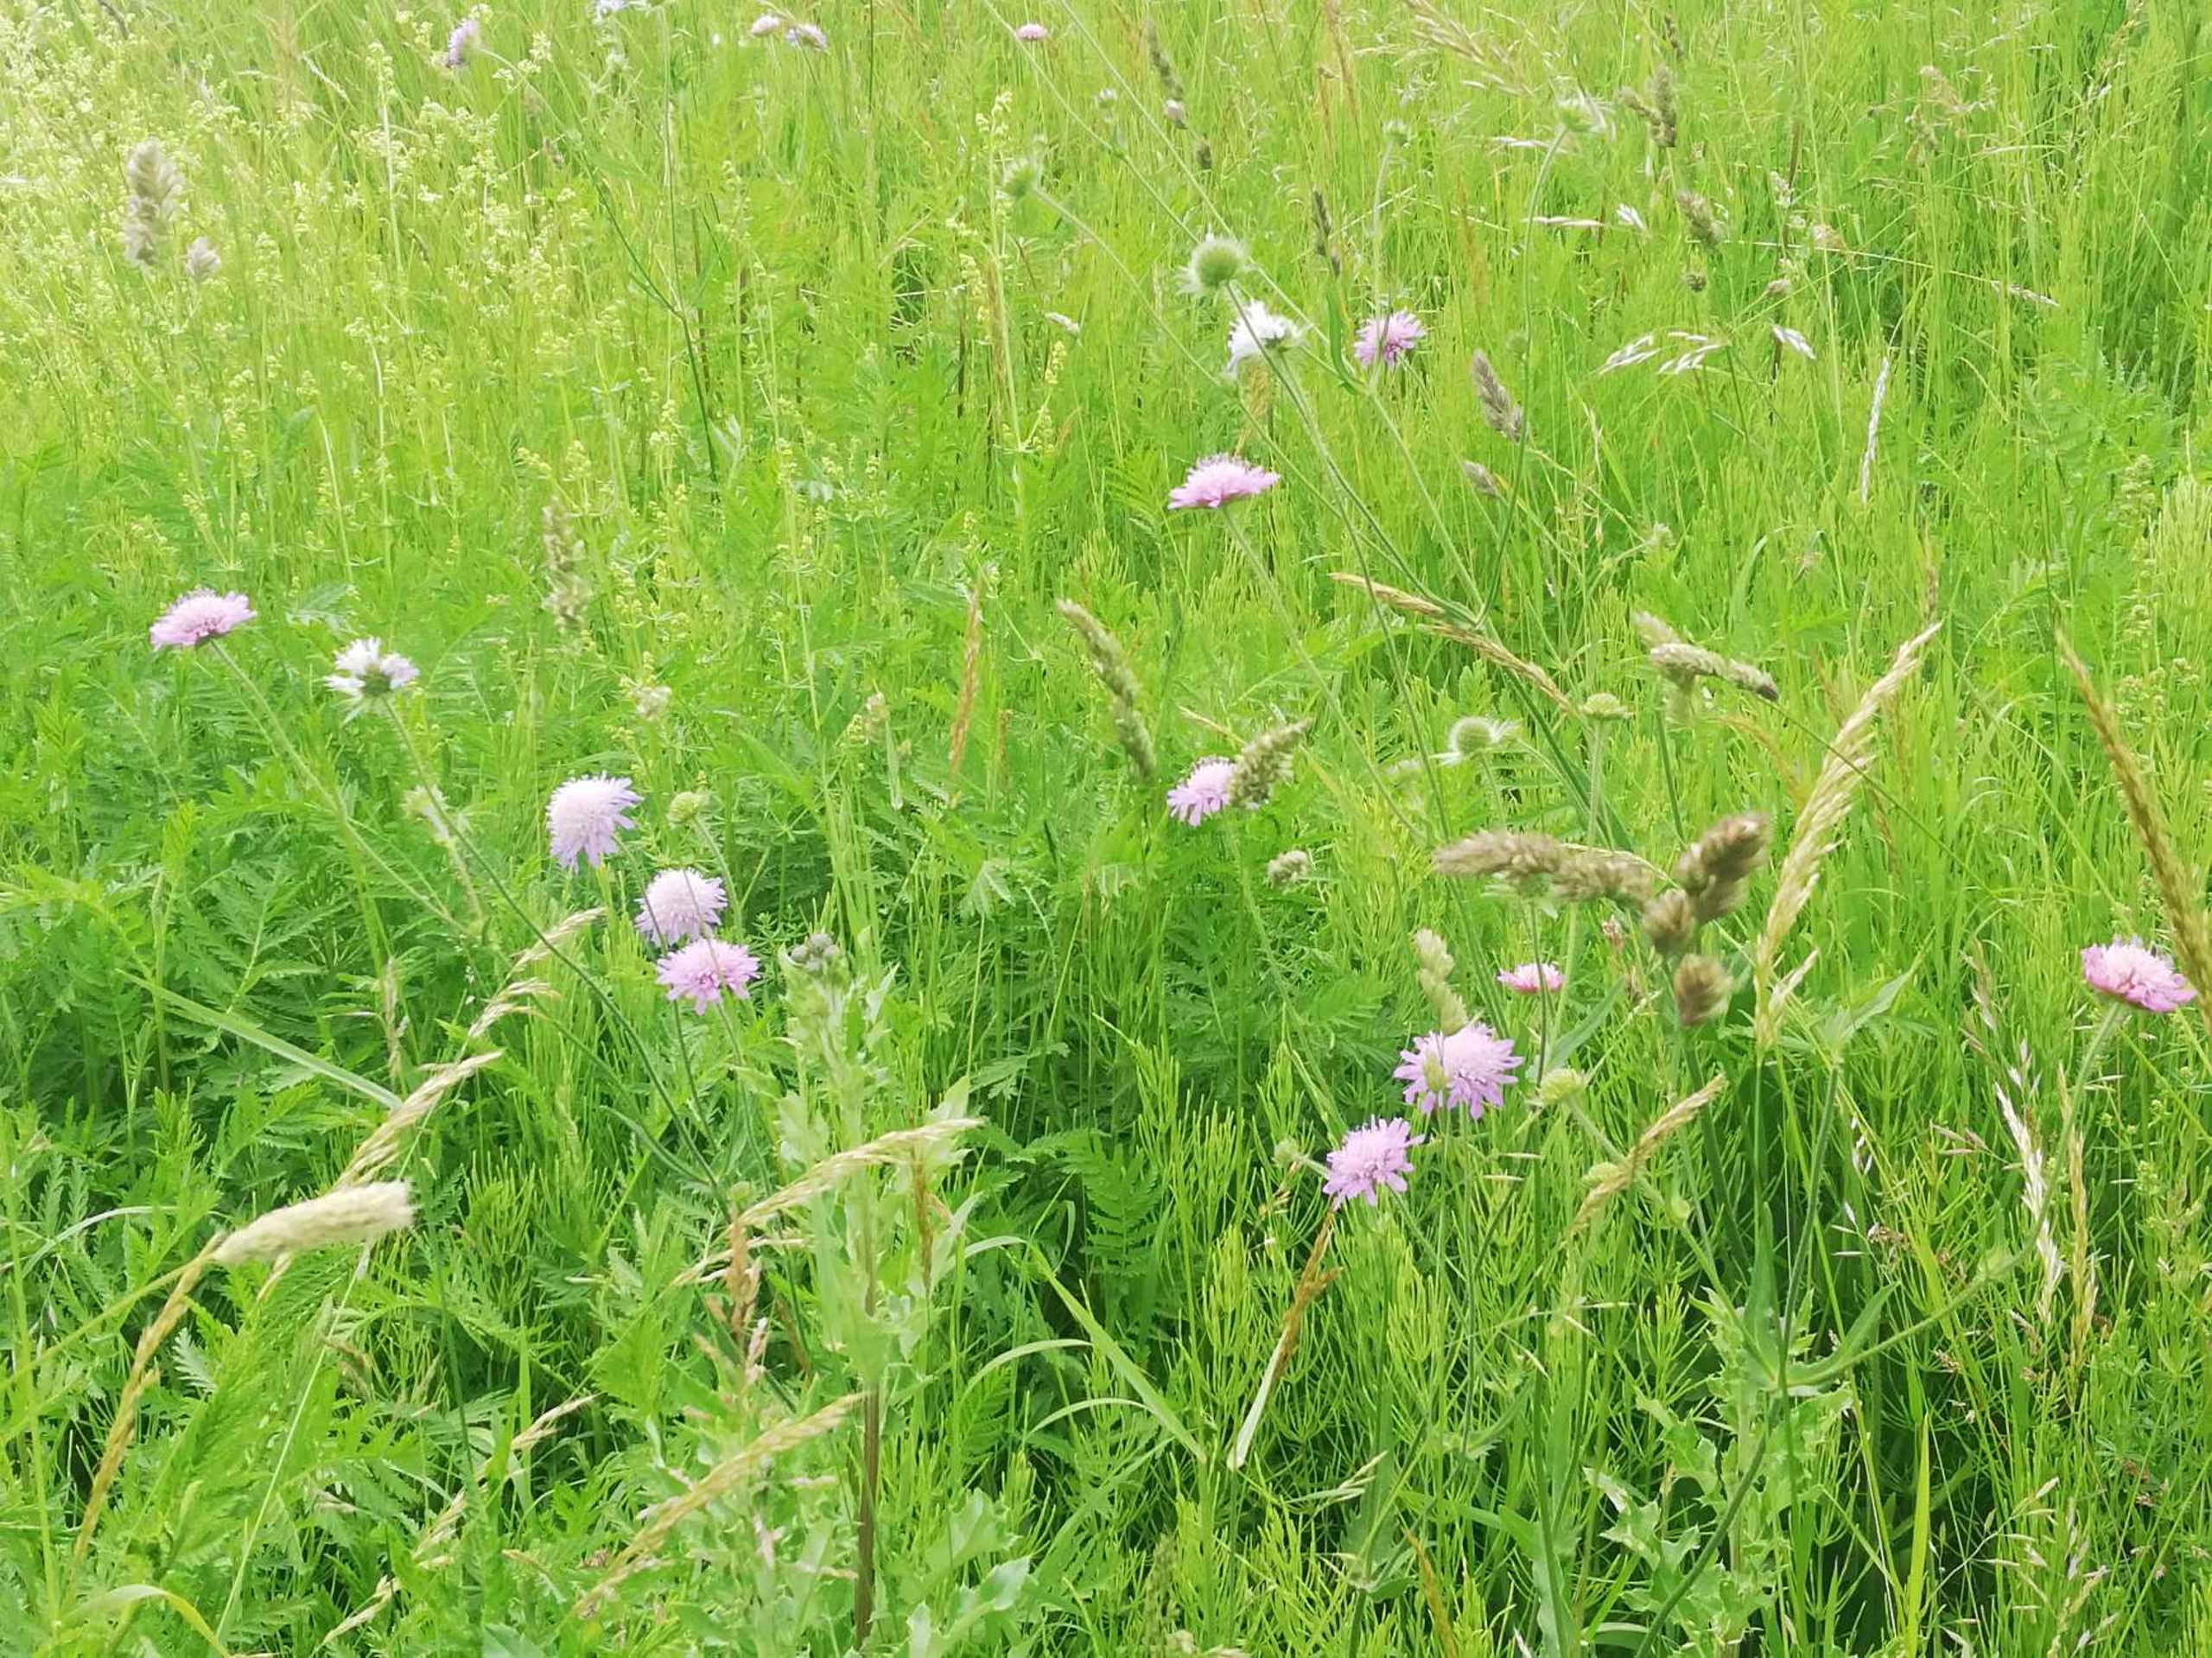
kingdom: Plantae
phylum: Tracheophyta
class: Magnoliopsida
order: Dipsacales
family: Caprifoliaceae
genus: Knautia
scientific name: Knautia arvensis
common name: Blåhat
